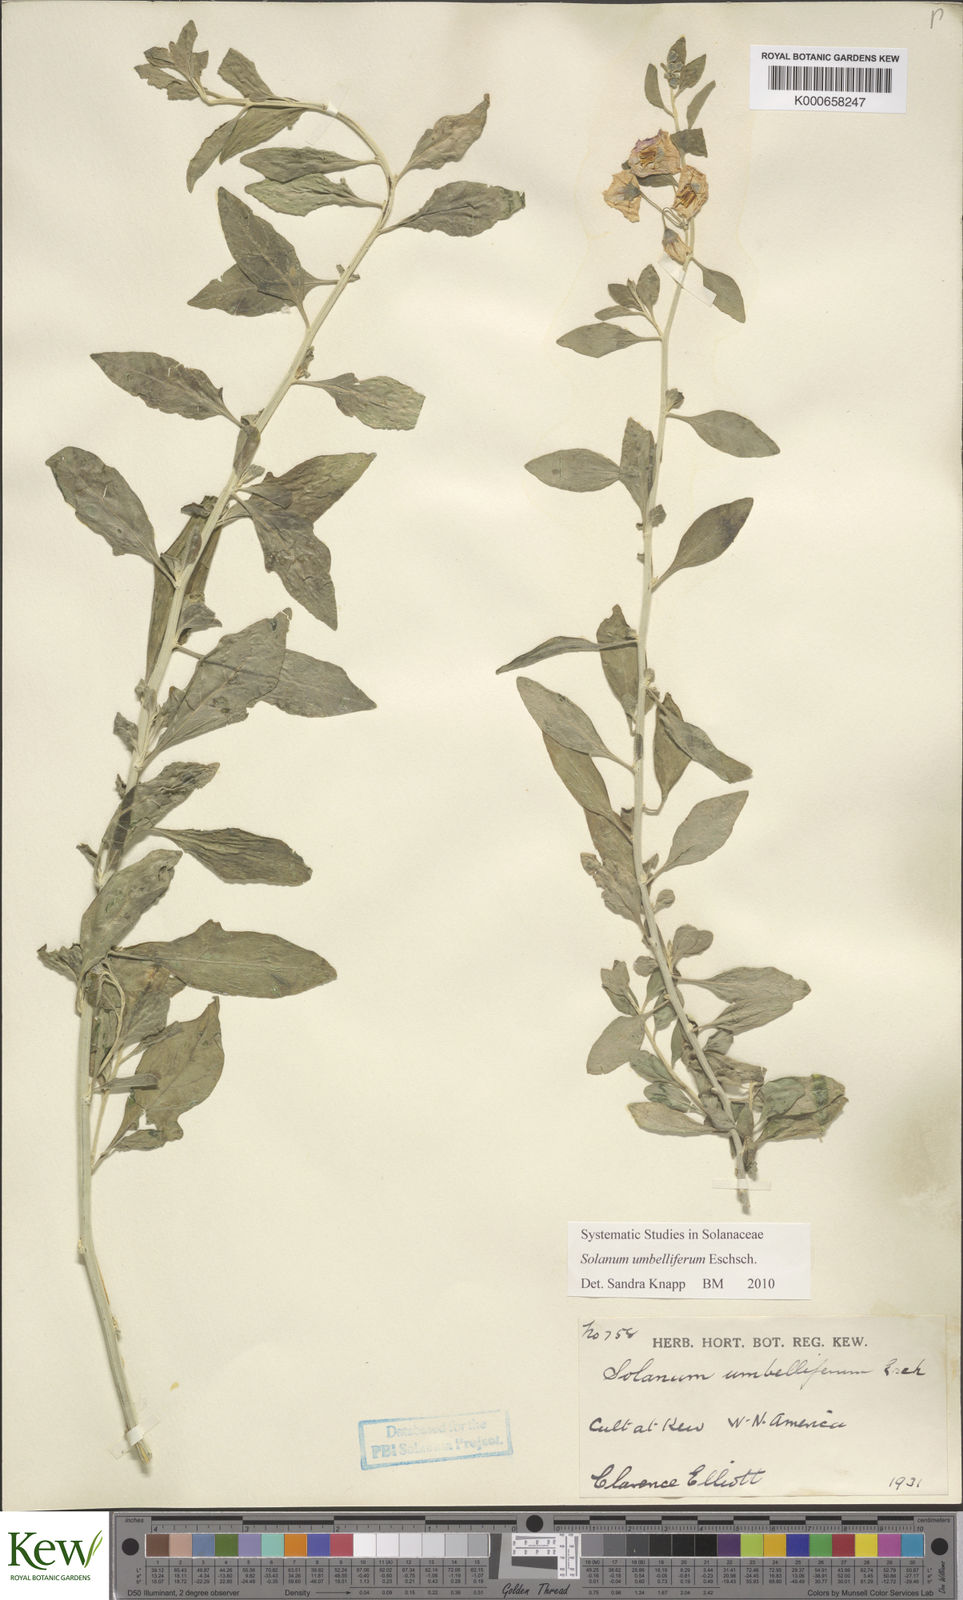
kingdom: Plantae
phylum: Tracheophyta
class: Magnoliopsida
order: Solanales
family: Solanaceae
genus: Solanum
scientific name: Solanum umbelliferum
